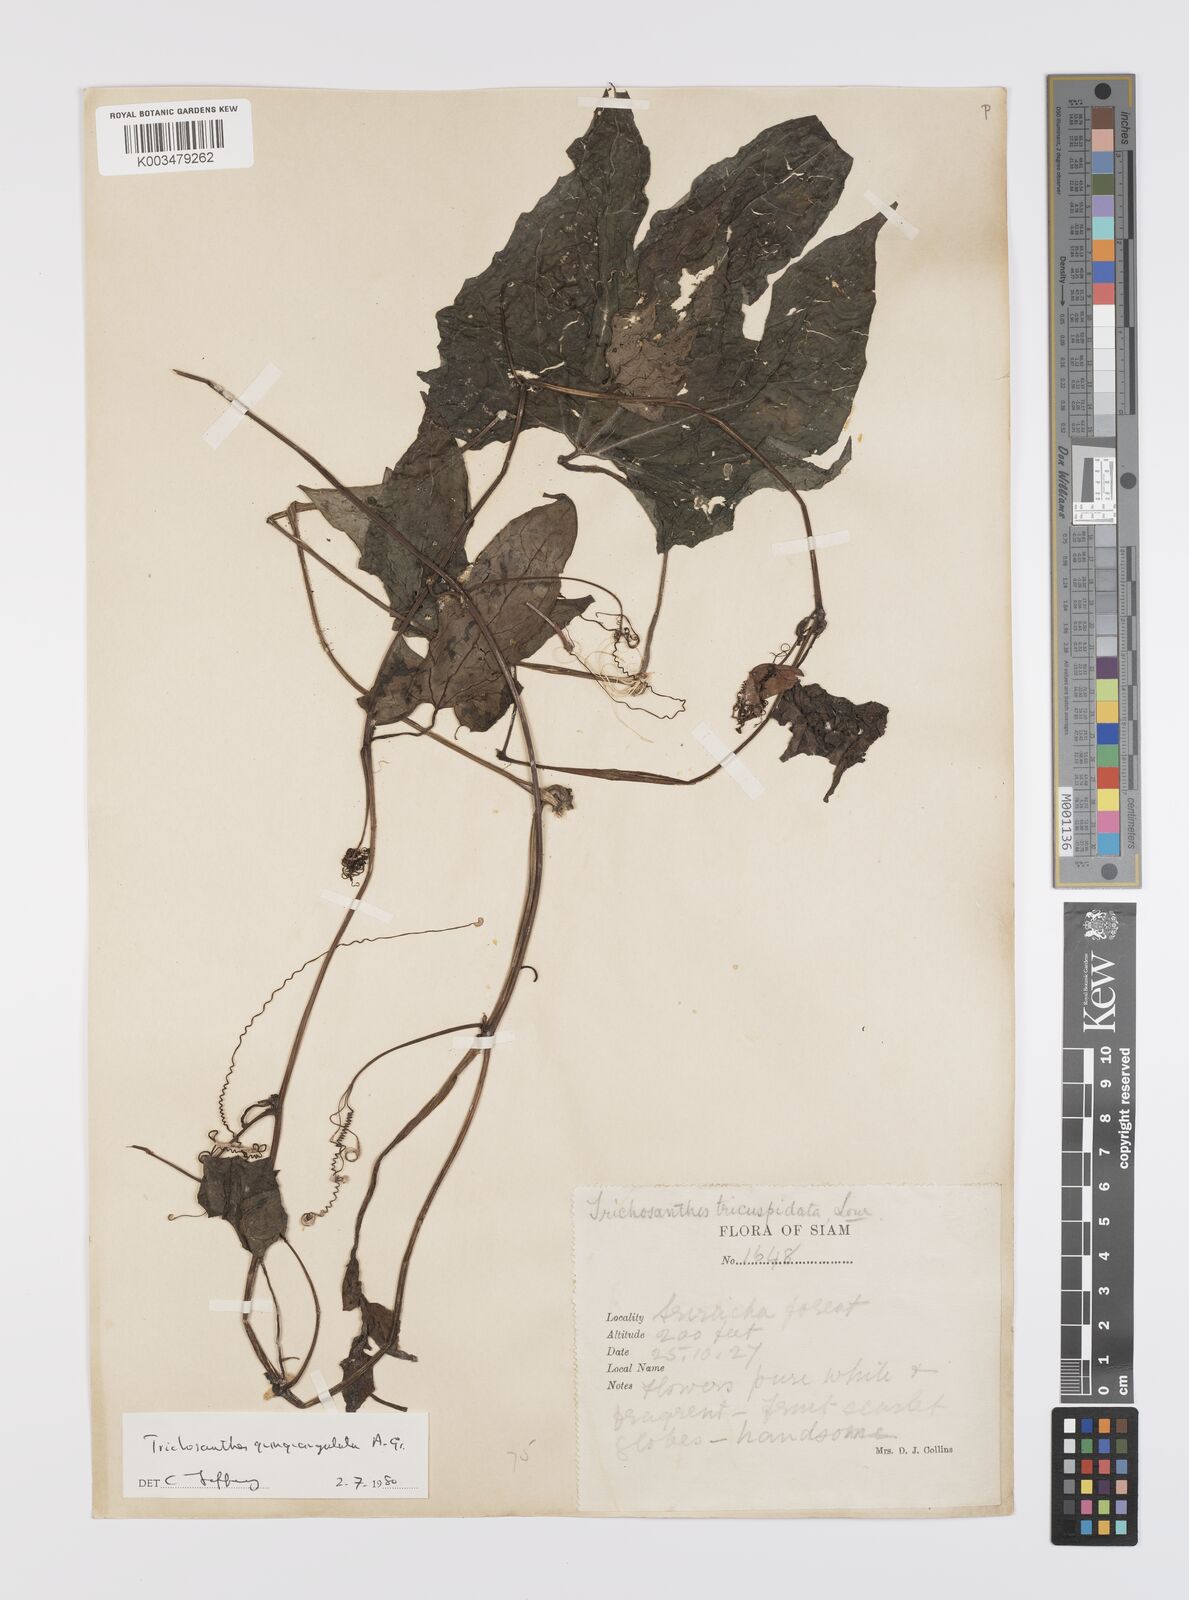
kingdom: Plantae
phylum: Tracheophyta
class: Magnoliopsida
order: Cucurbitales
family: Cucurbitaceae
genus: Trichosanthes
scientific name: Trichosanthes quinquangulata
